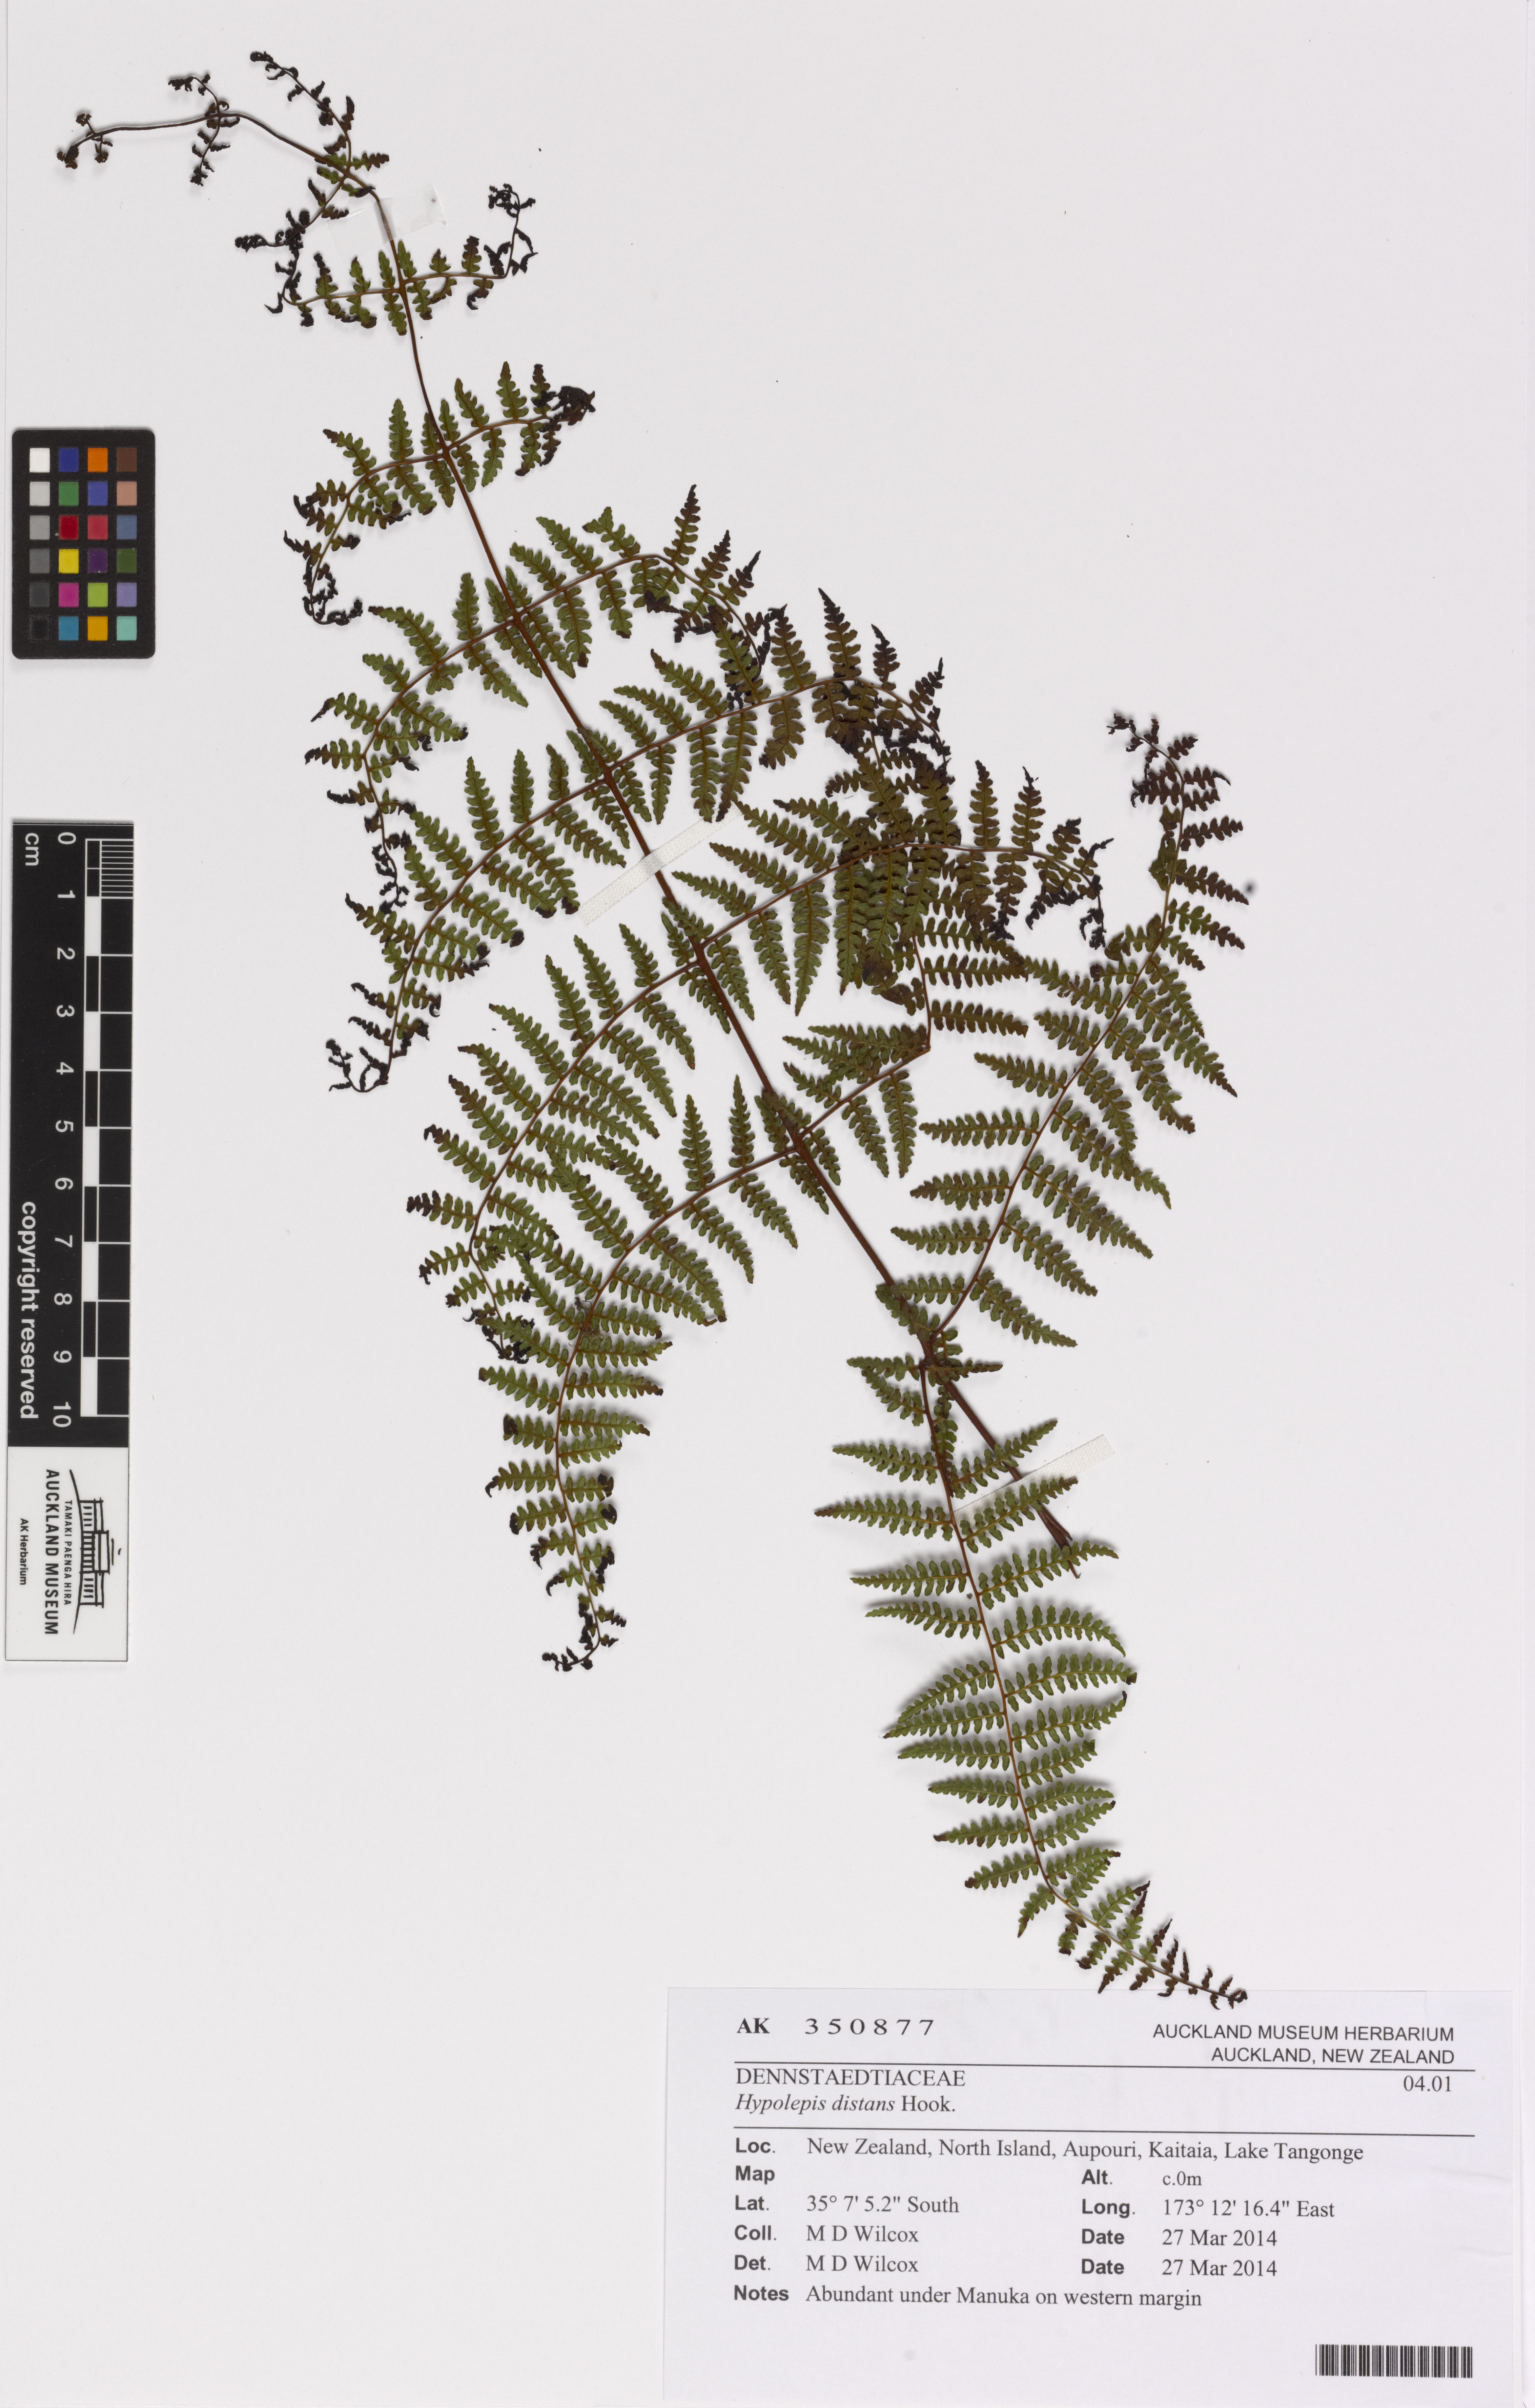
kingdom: Plantae
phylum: Tracheophyta
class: Polypodiopsida
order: Polypodiales
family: Dennstaedtiaceae
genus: Hiya
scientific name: Hiya distans
